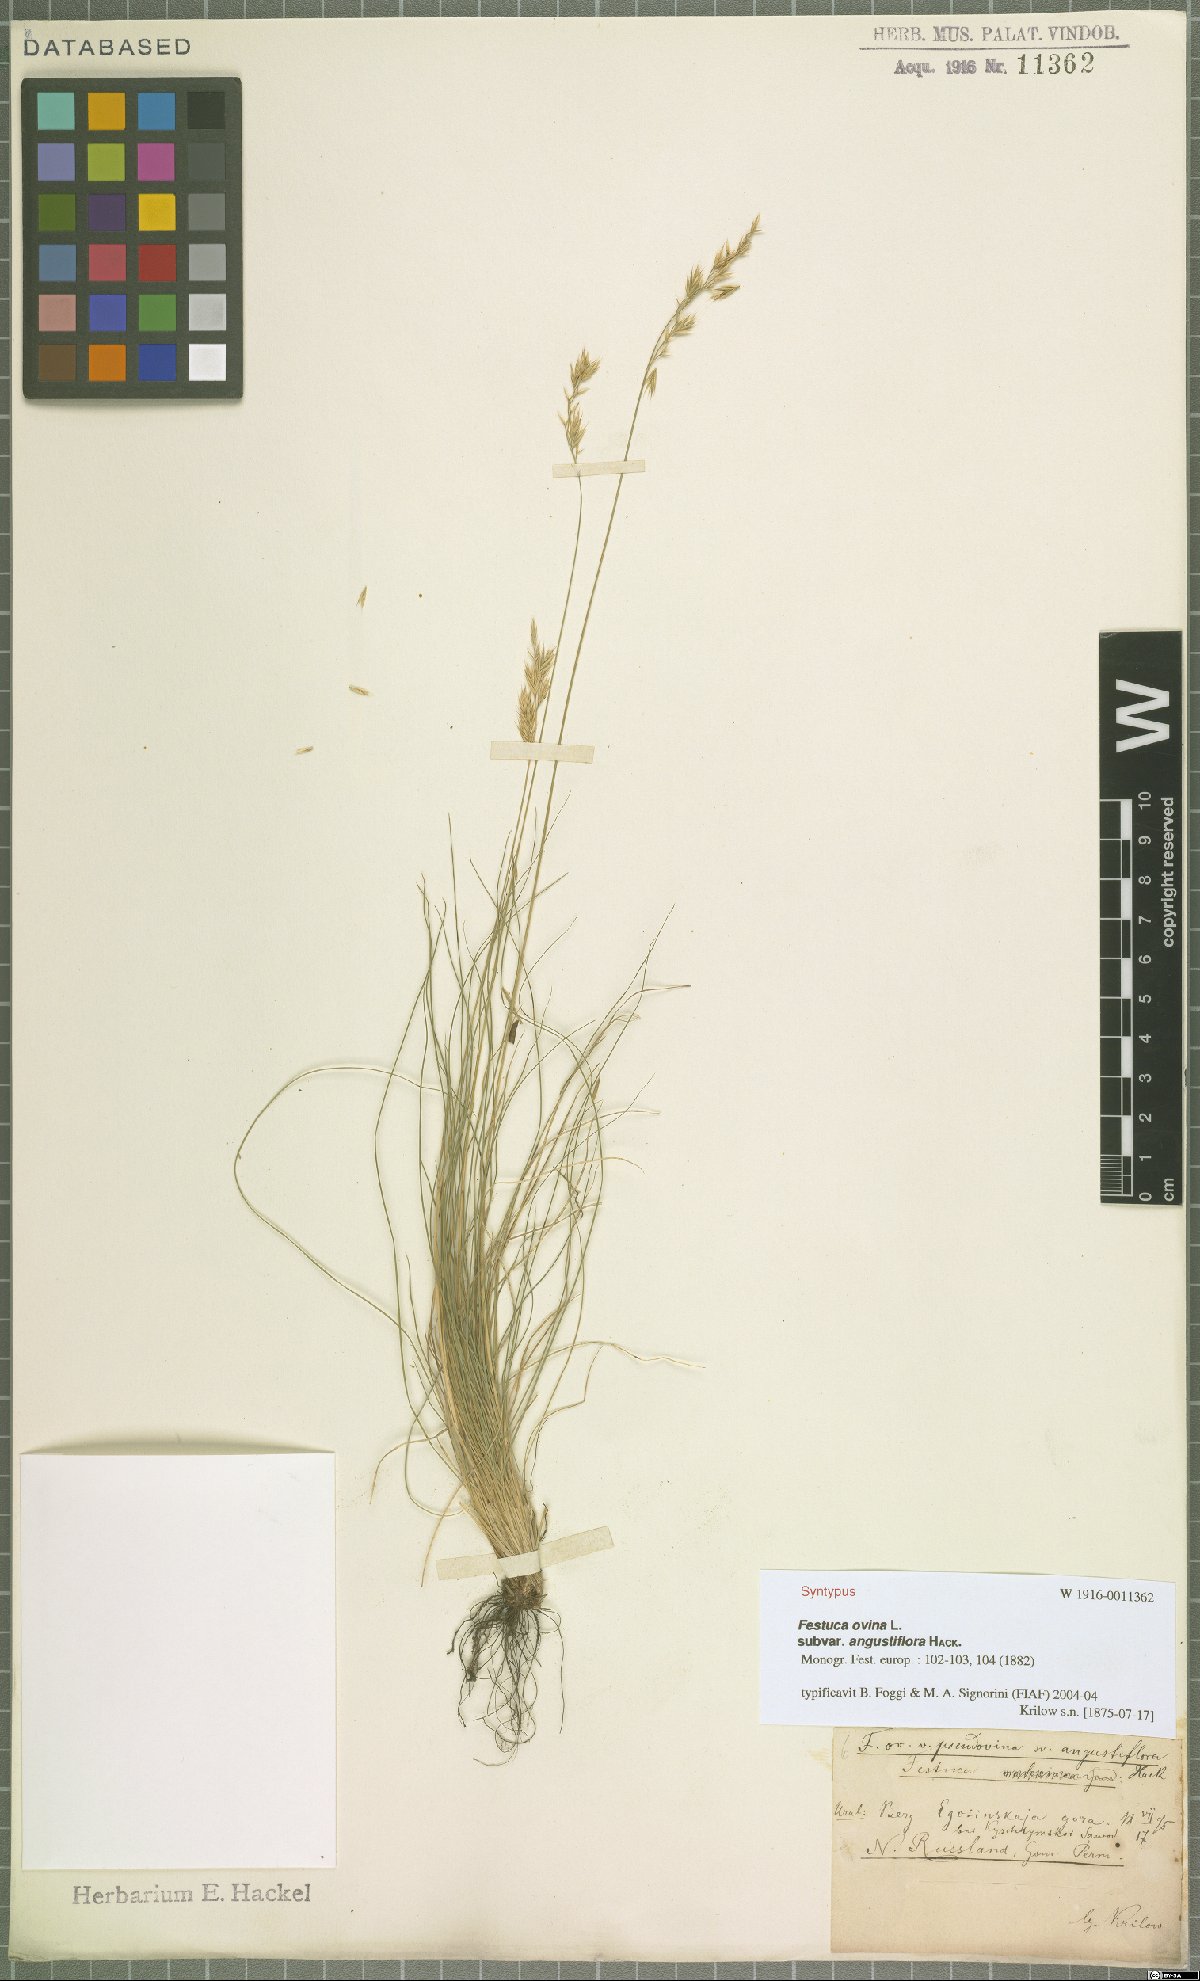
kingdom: Plantae
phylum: Tracheophyta
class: Liliopsida
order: Poales
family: Poaceae
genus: Festuca
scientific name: Festuca ovina
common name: Sheep fescue
